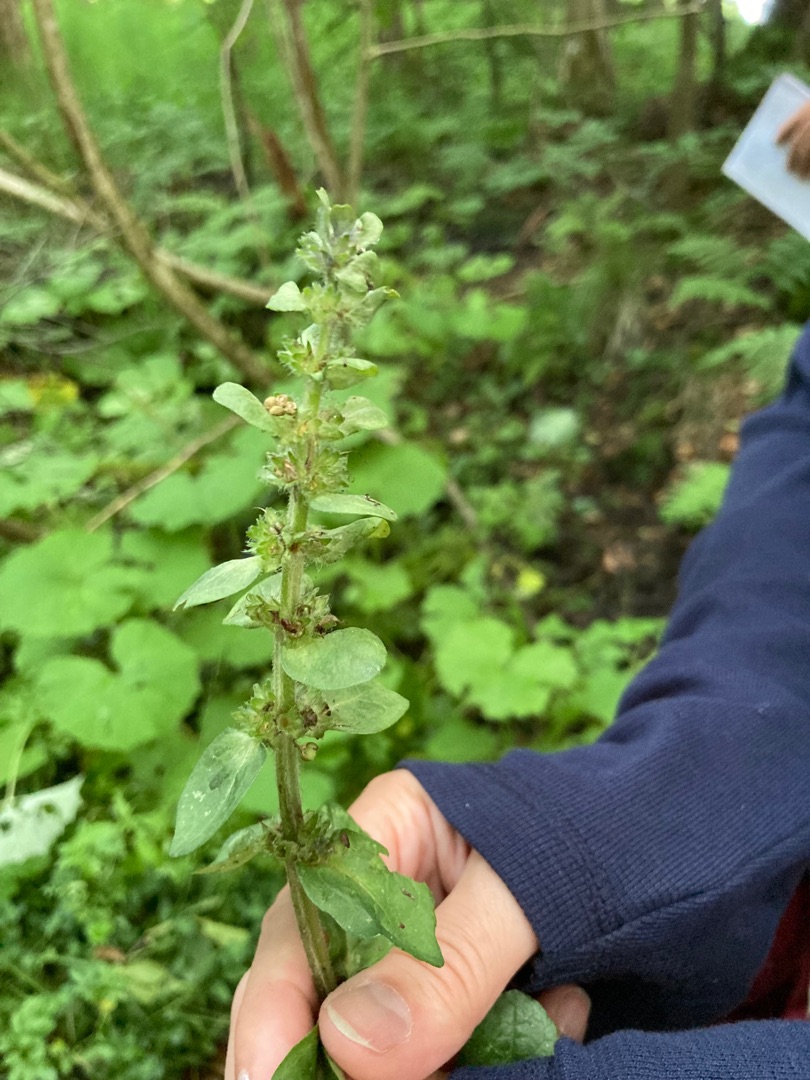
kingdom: Plantae
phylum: Tracheophyta
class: Magnoliopsida
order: Lamiales
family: Lamiaceae
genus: Ajuga
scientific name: Ajuga reptans
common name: Krybende læbeløs
